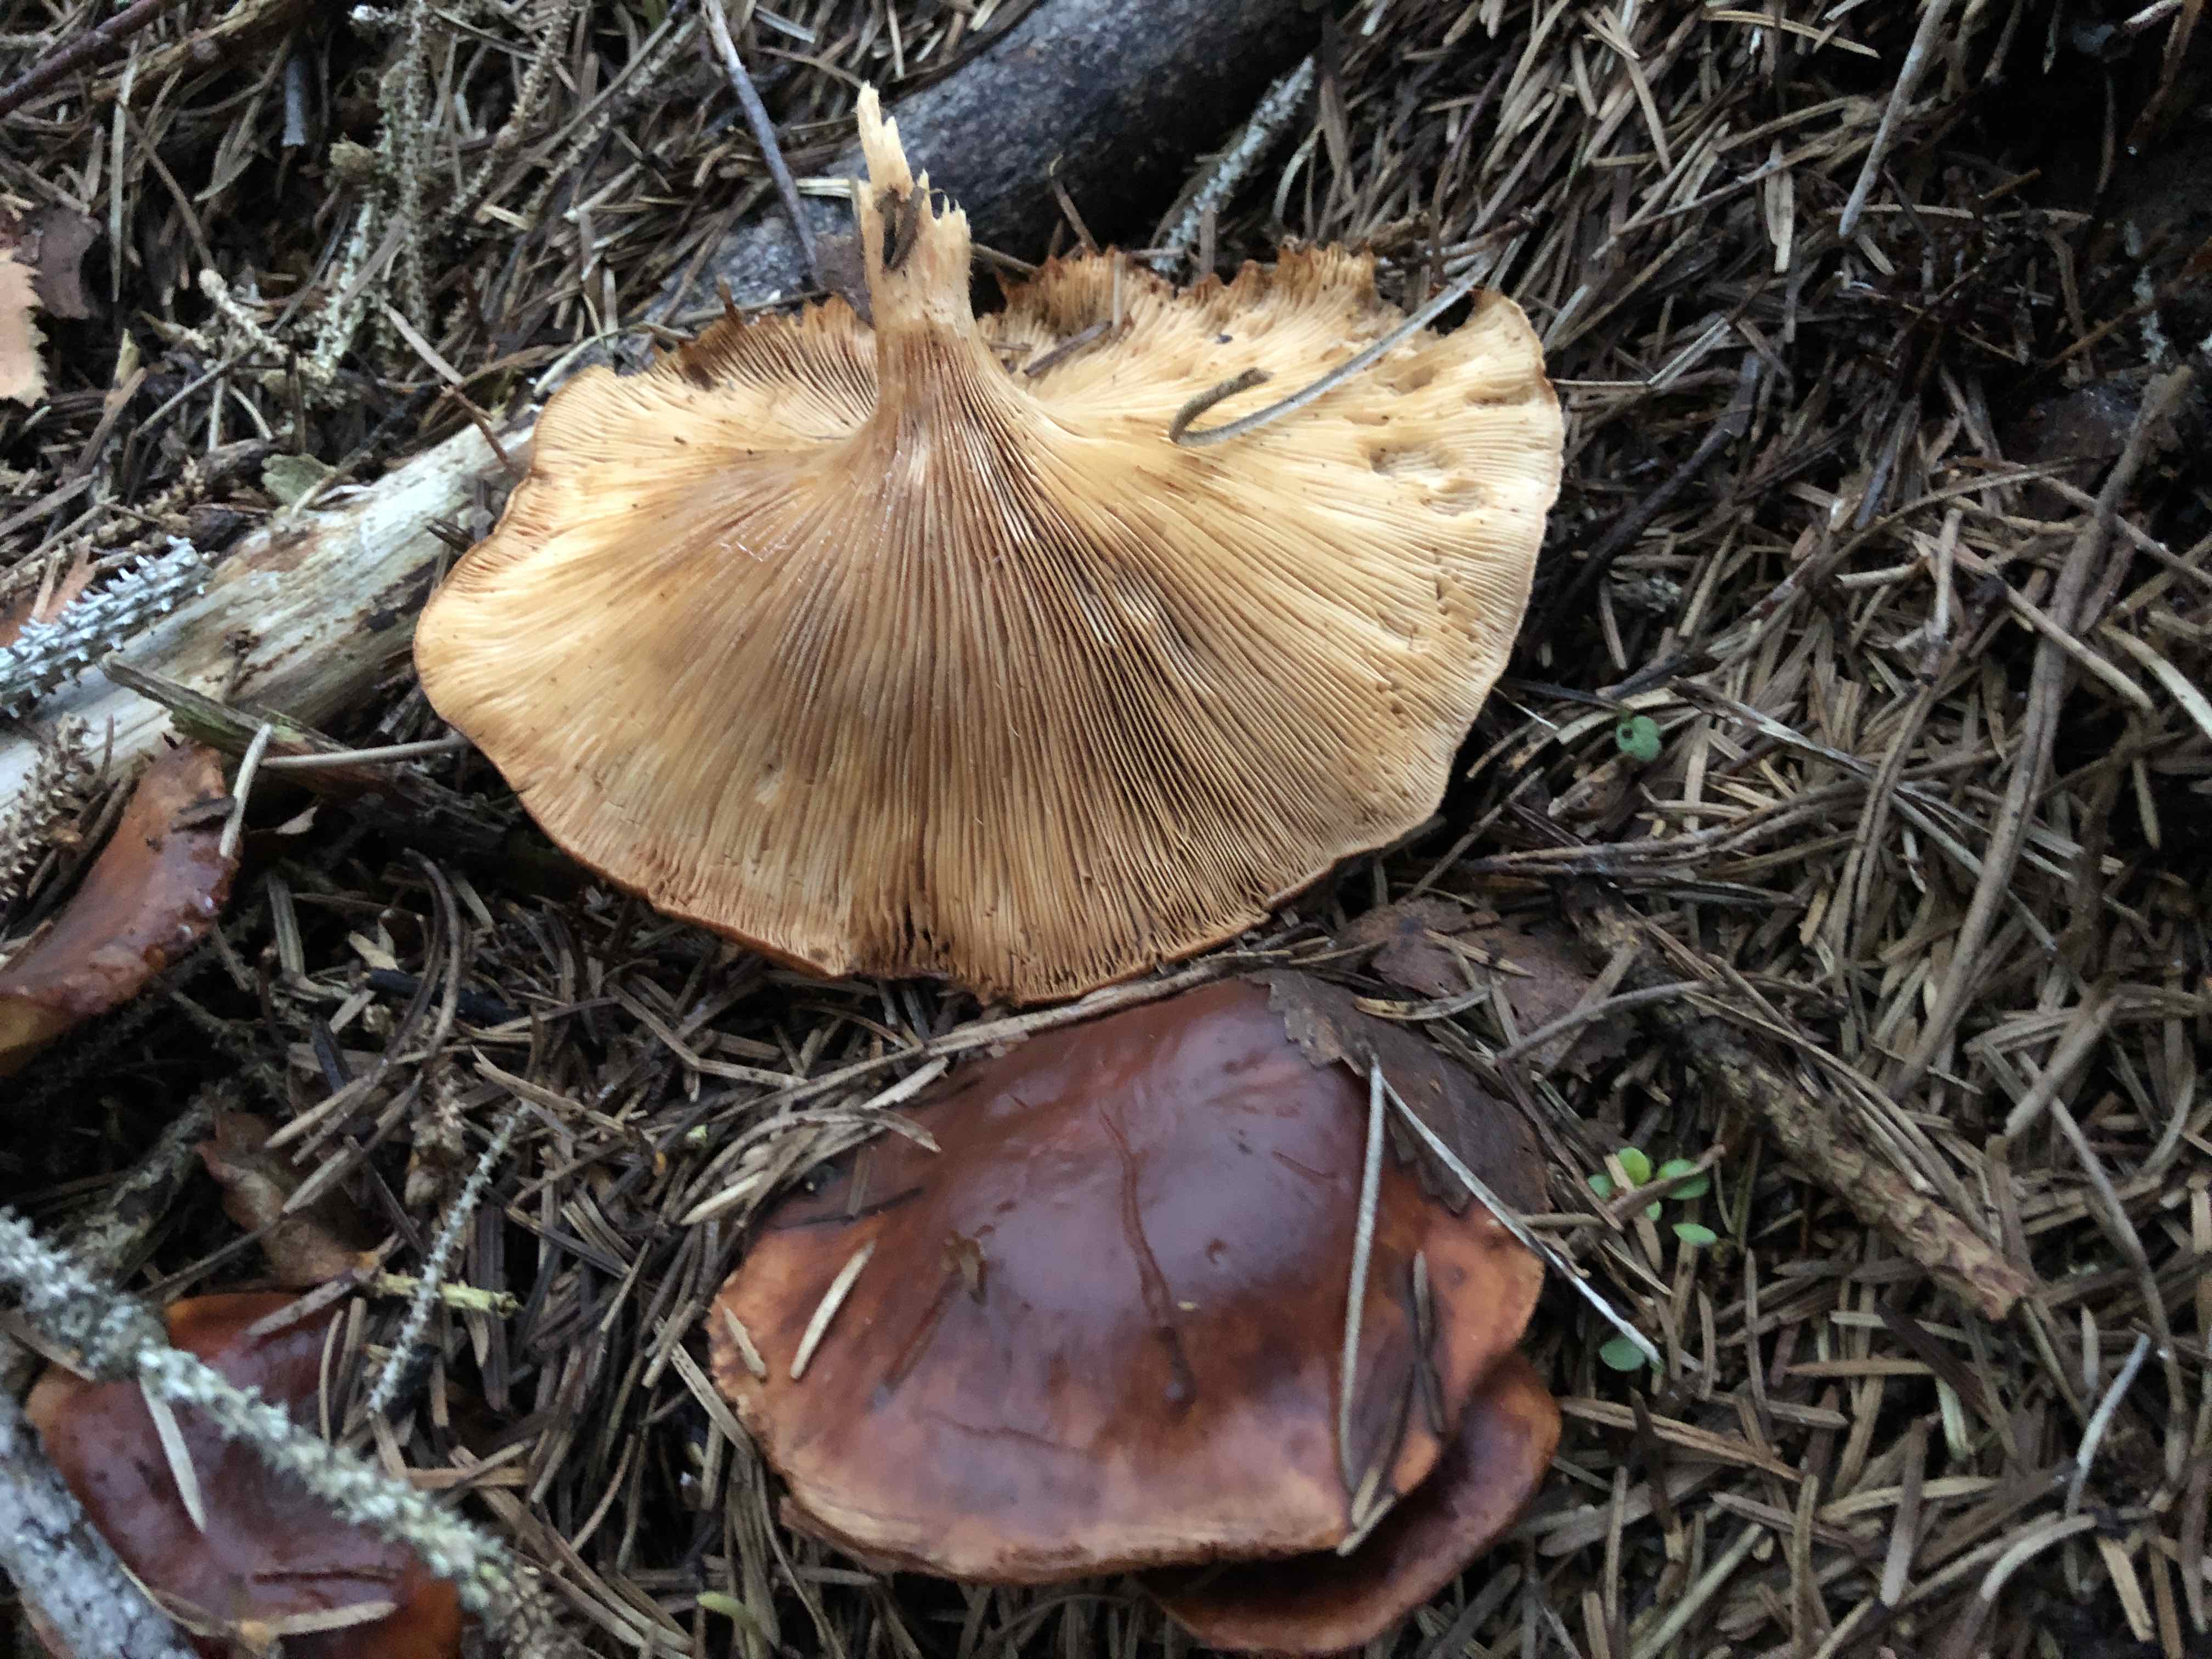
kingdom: Fungi
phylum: Basidiomycota
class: Agaricomycetes
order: Agaricales
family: Tricholomataceae
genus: Paralepista
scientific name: Paralepista flaccida
